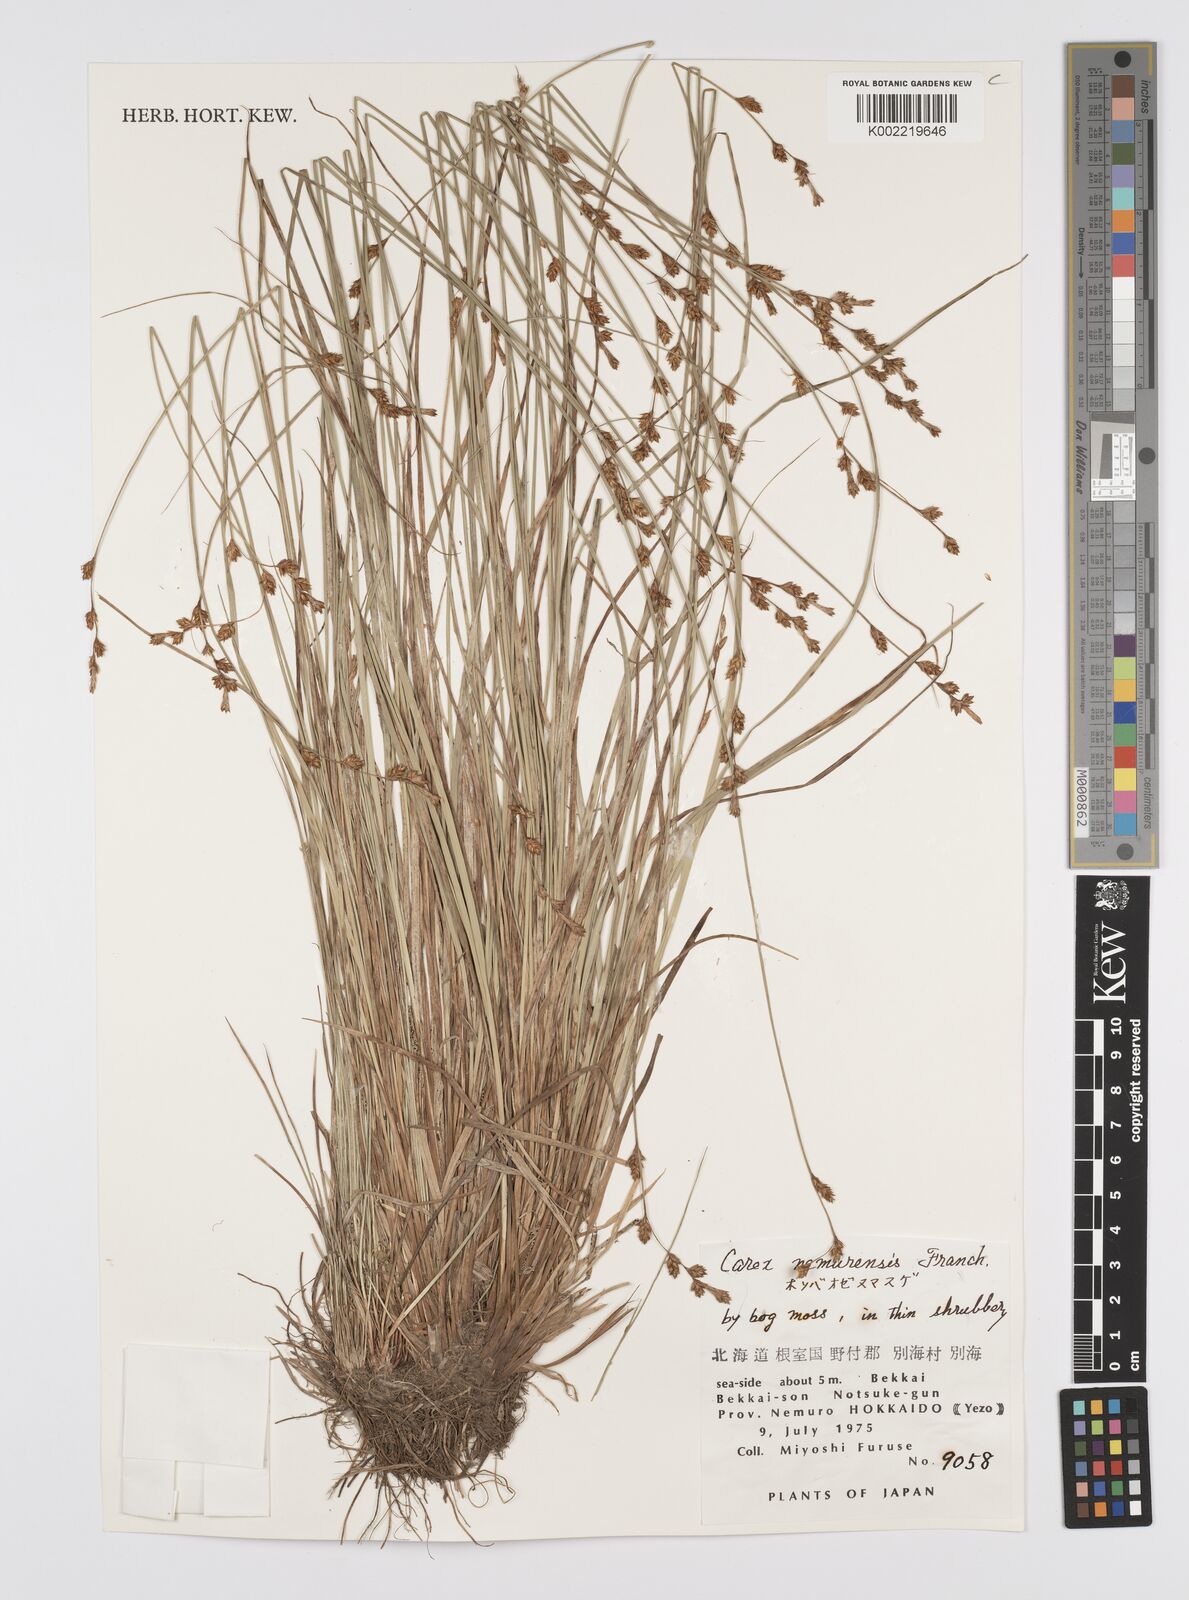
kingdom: Plantae
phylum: Tracheophyta
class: Liliopsida
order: Poales
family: Cyperaceae
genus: Carex
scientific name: Carex traiziscana
